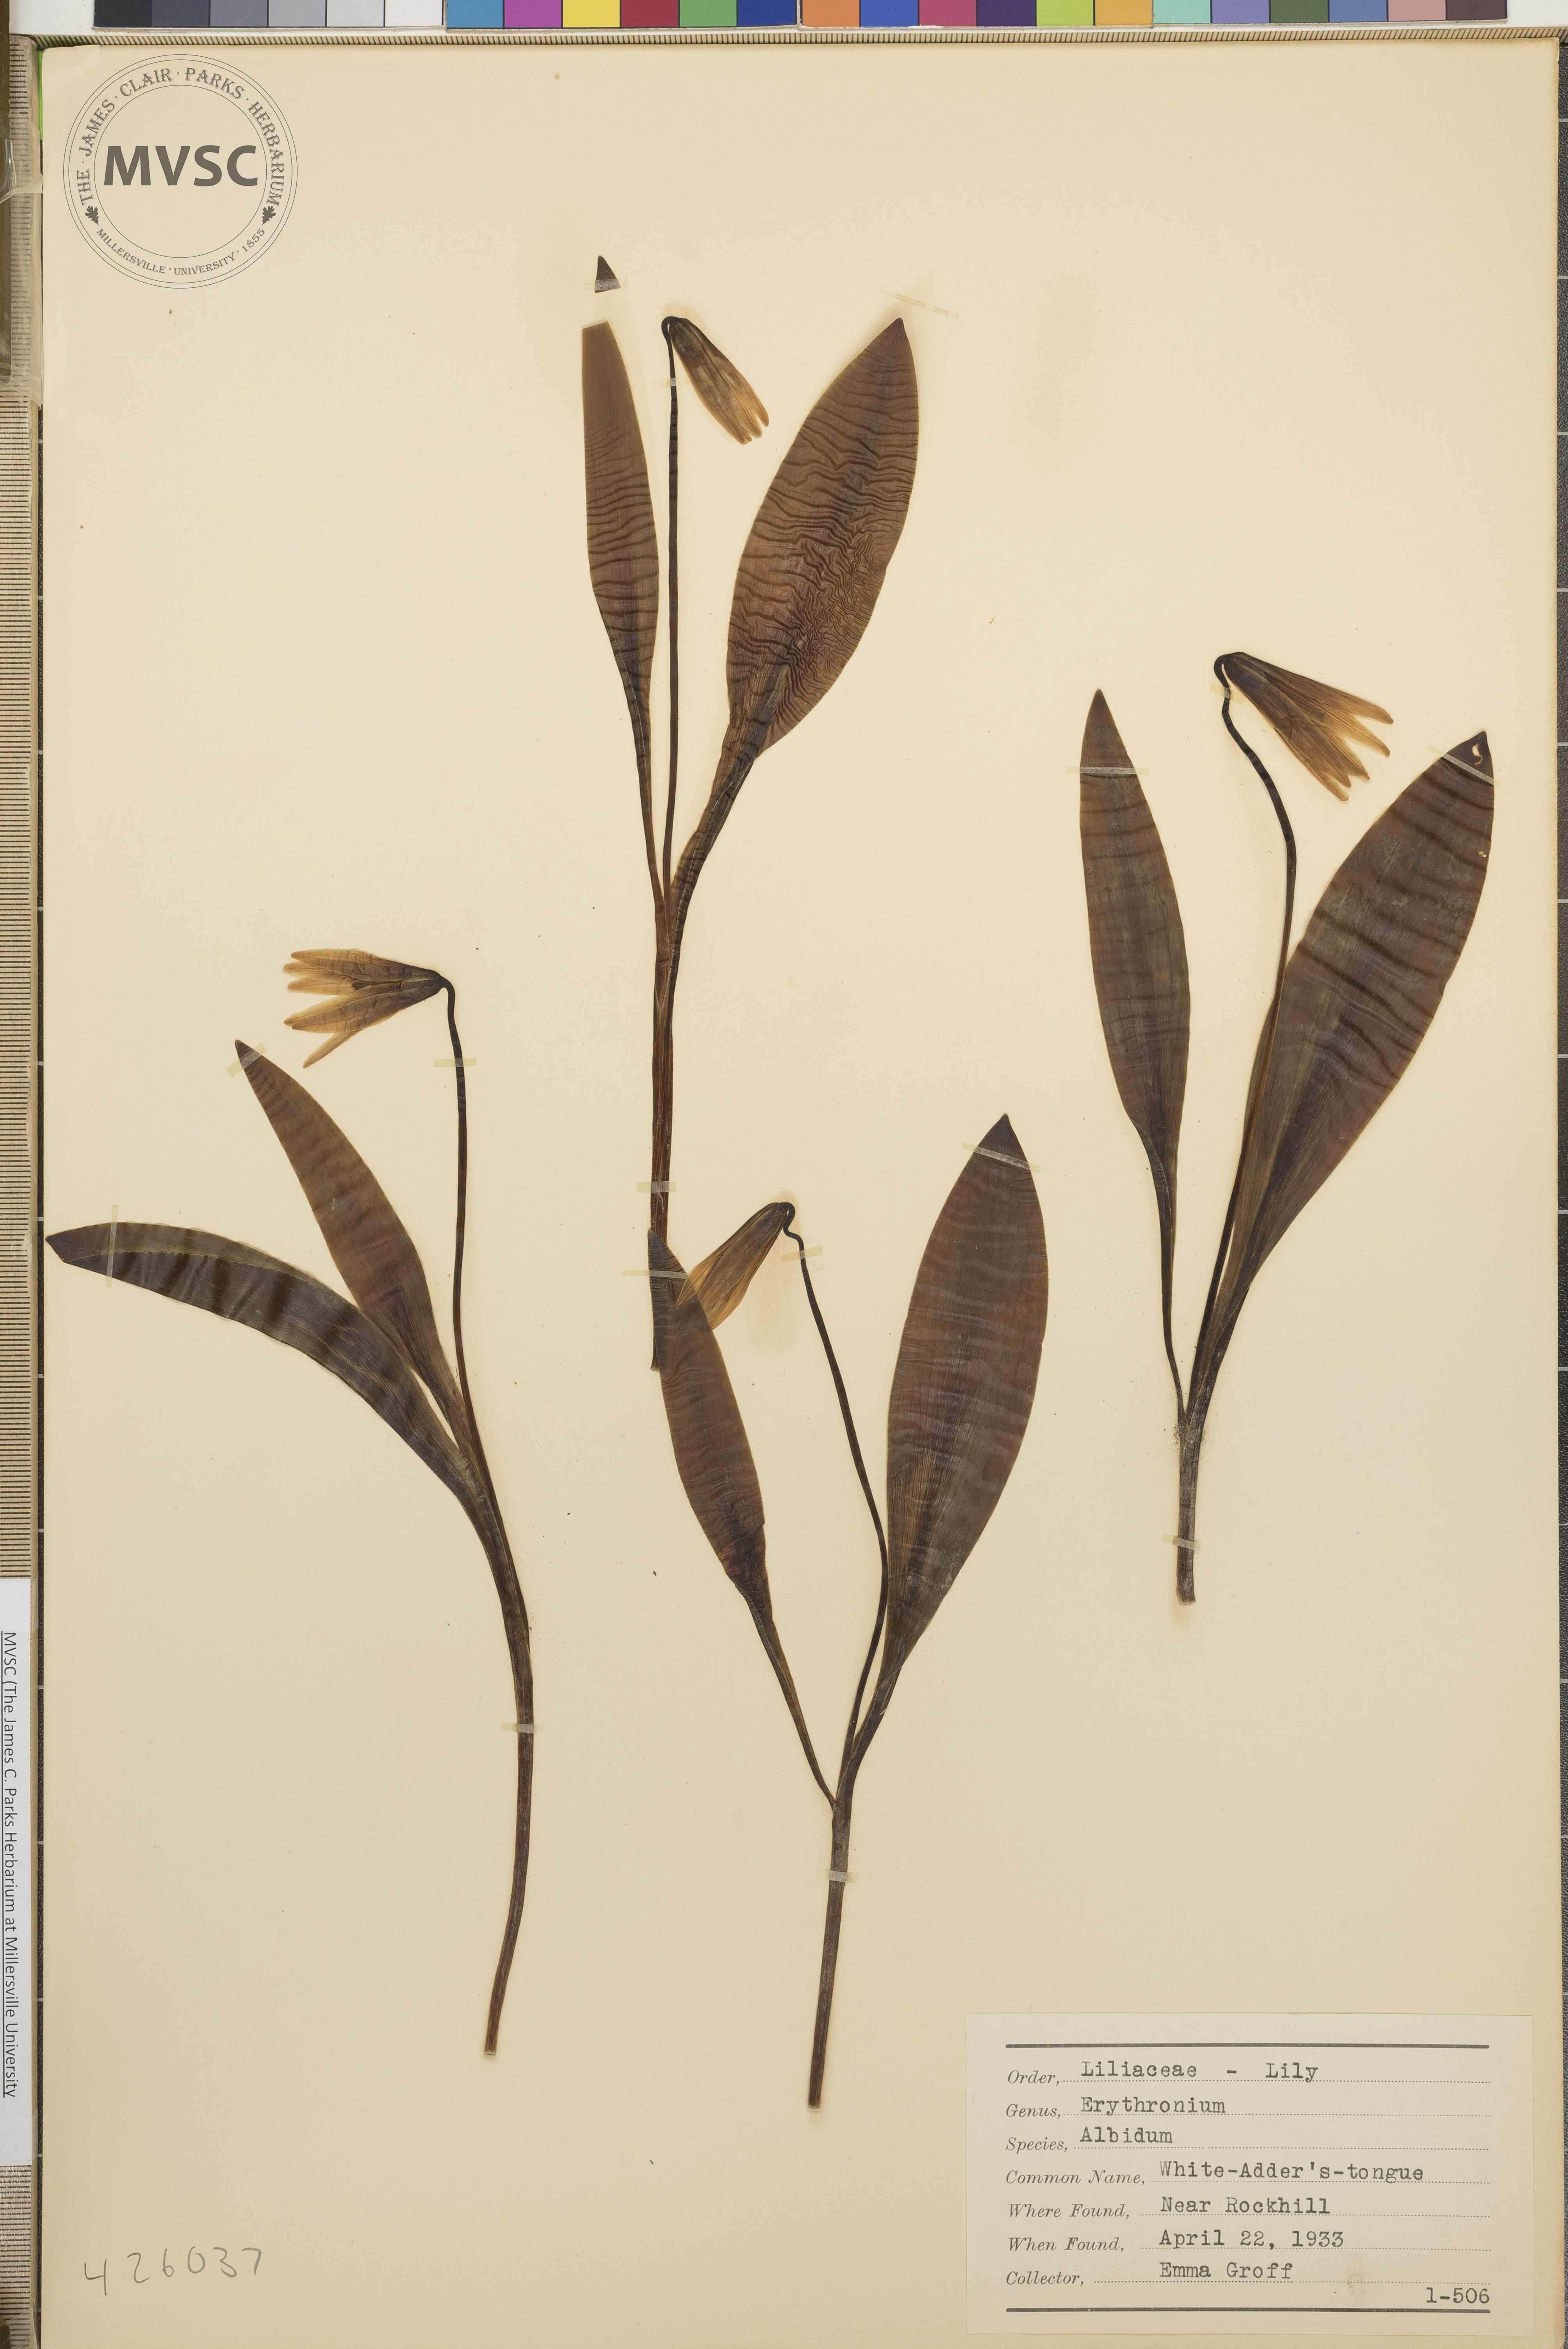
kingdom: Plantae
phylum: Tracheophyta
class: Liliopsida
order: Liliales
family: Liliaceae
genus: Erythronium
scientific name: Erythronium albidum
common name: White Adder's-tongue
